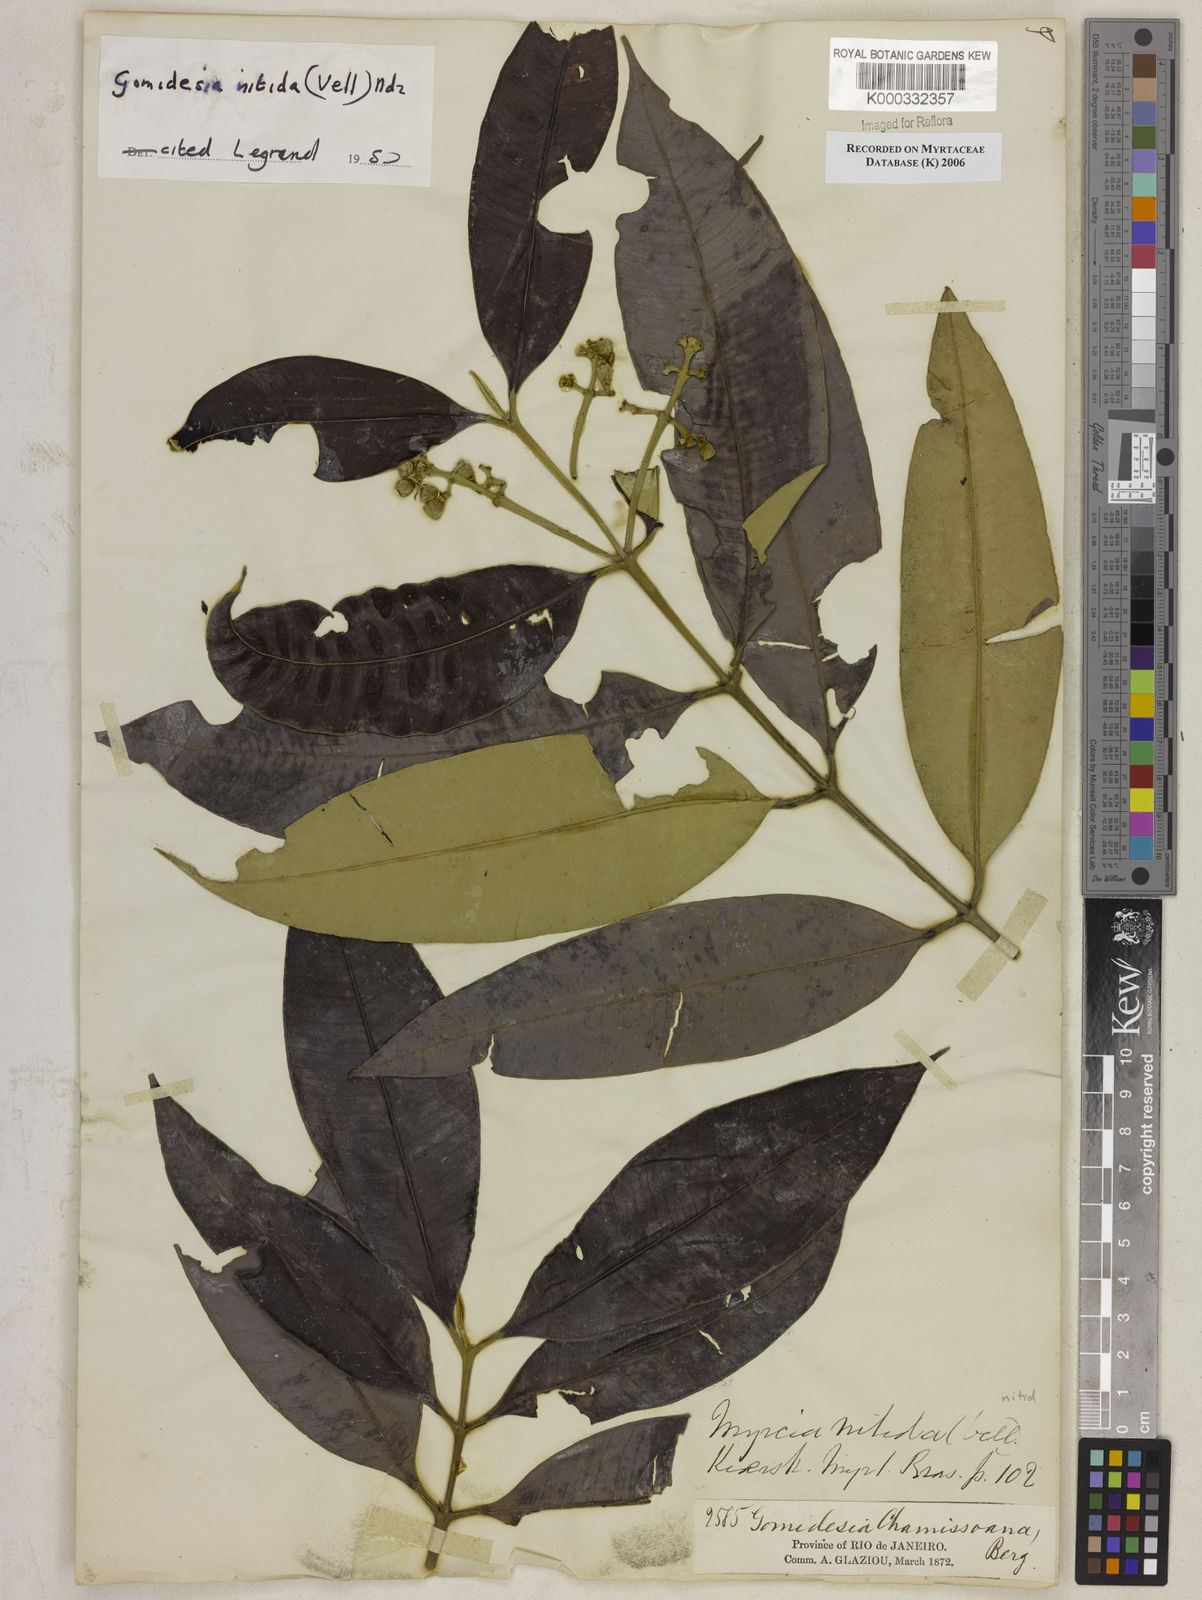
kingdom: Plantae
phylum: Tracheophyta
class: Magnoliopsida
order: Myrtales
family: Myrtaceae
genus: Myrcia
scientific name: Myrcia subsericea
